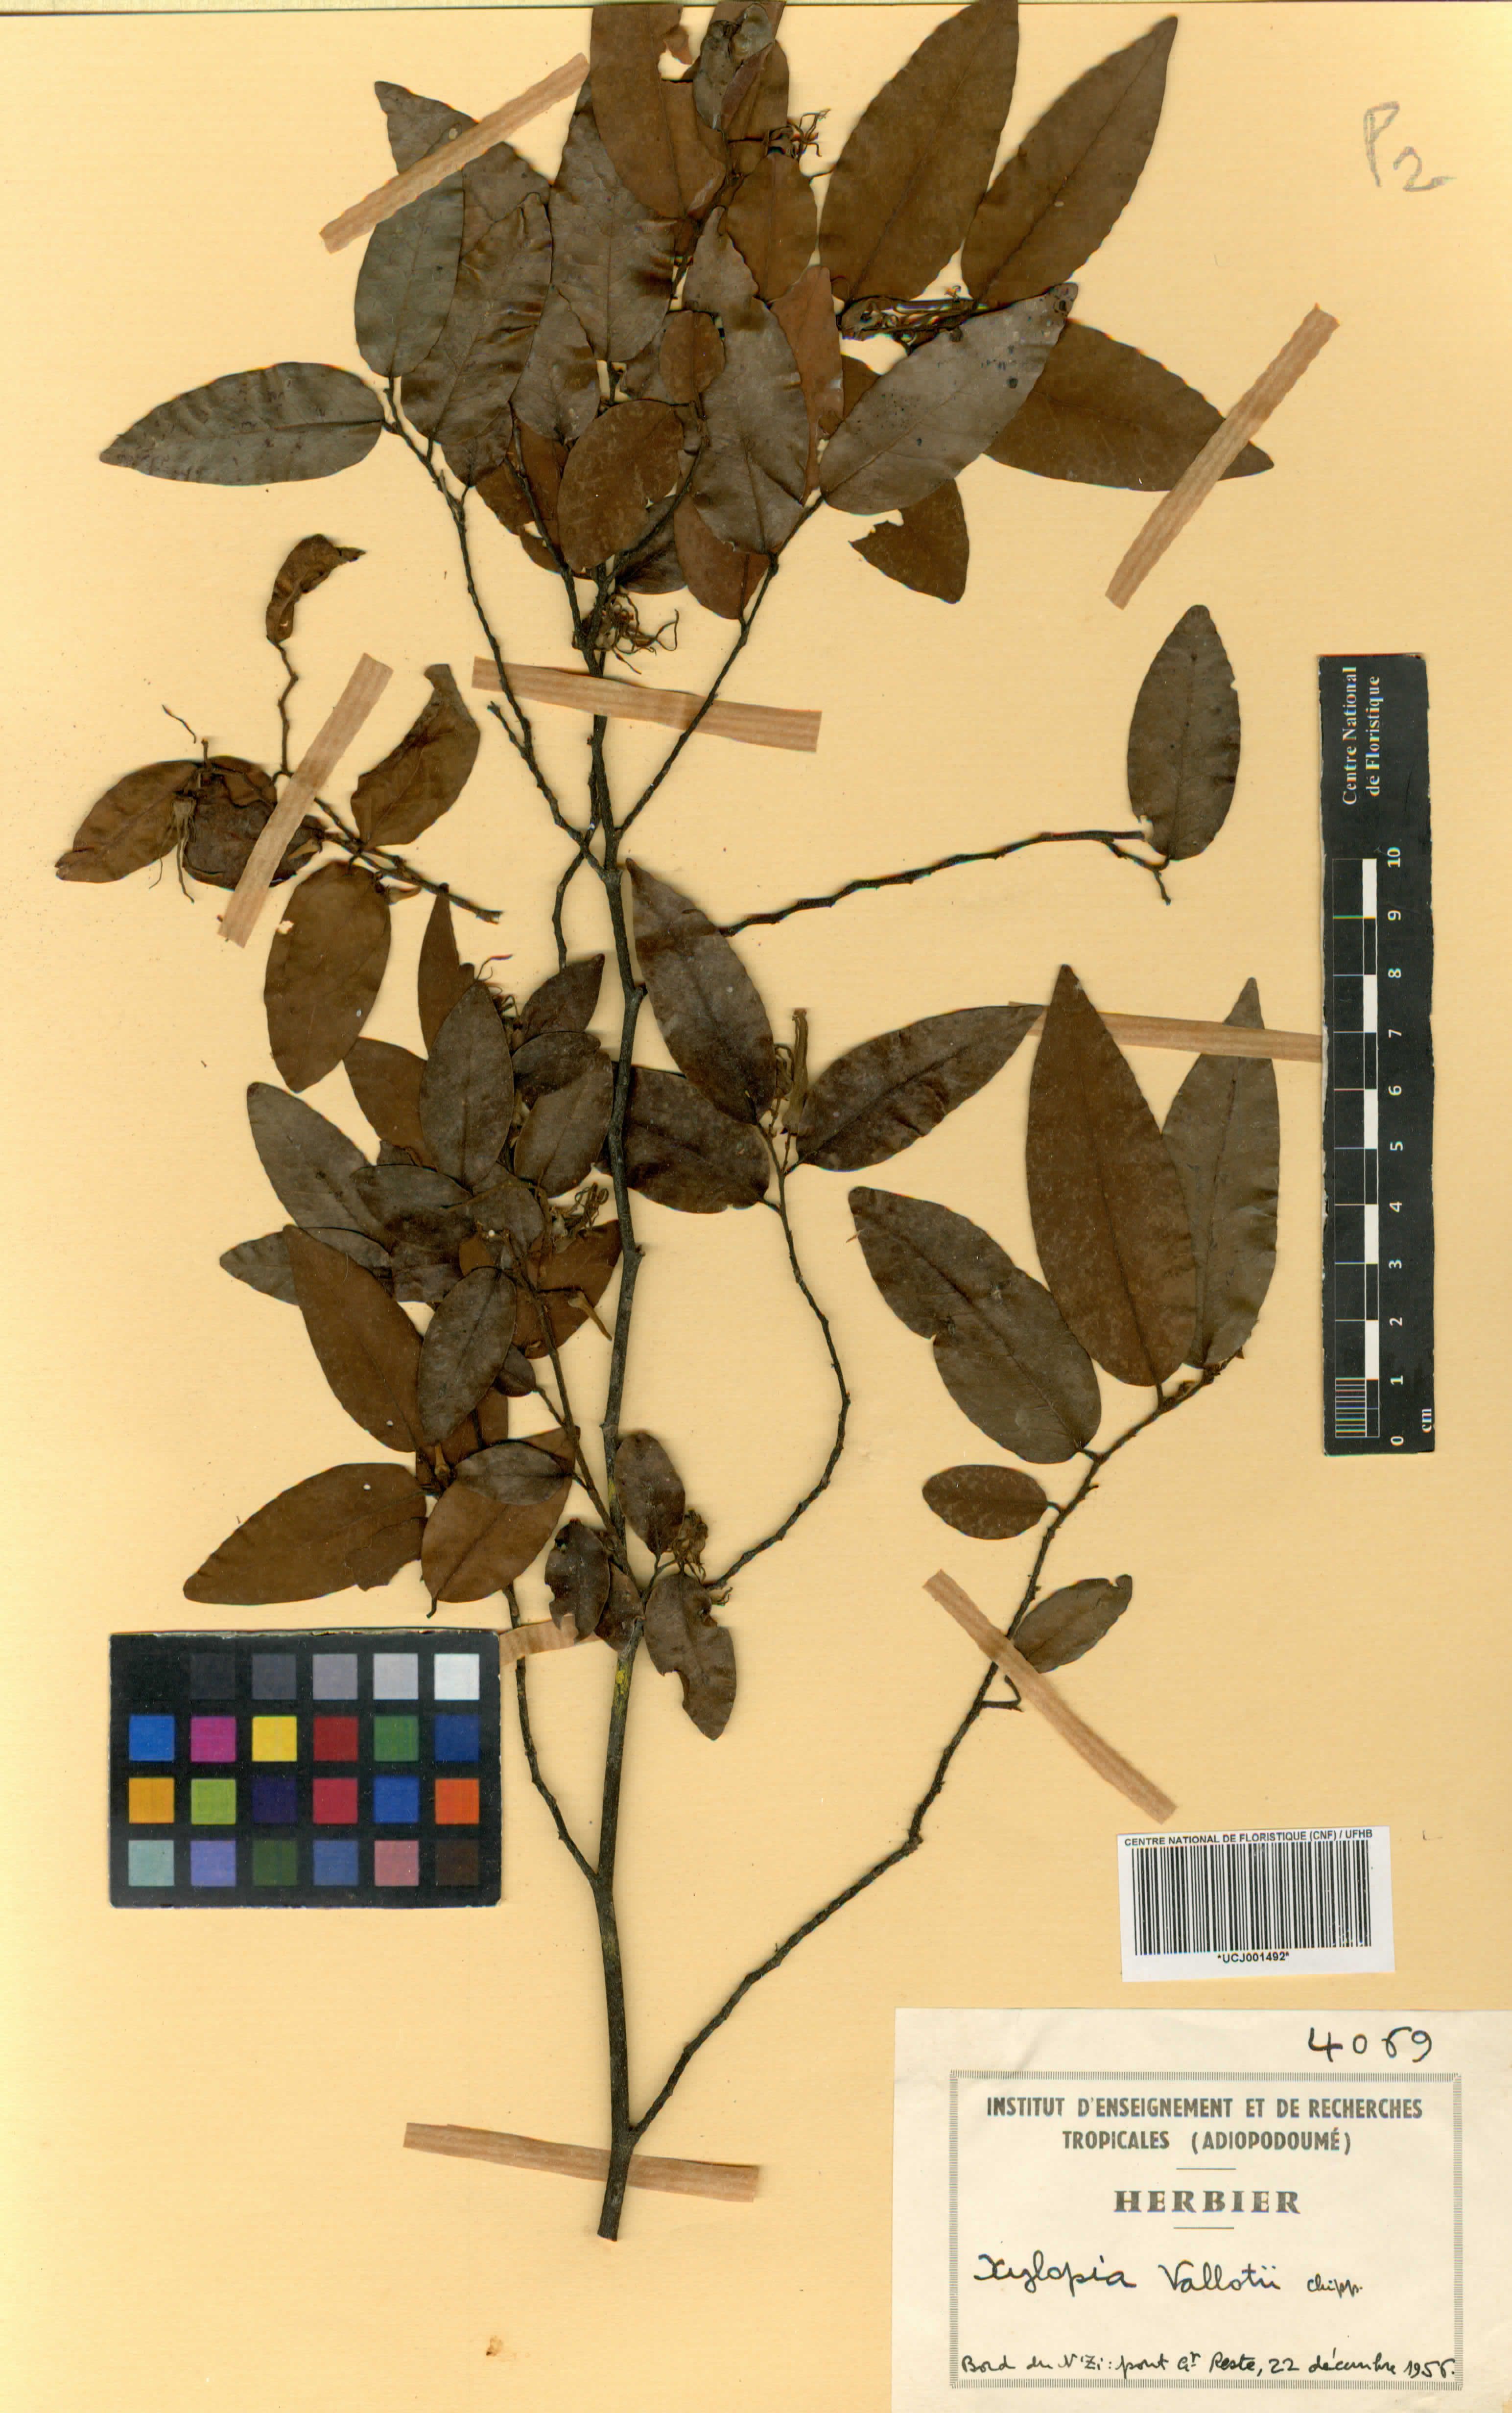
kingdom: Plantae
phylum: Tracheophyta
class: Magnoliopsida
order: Magnoliales
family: Annonaceae
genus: Xylopia
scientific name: Xylopia parviflora
